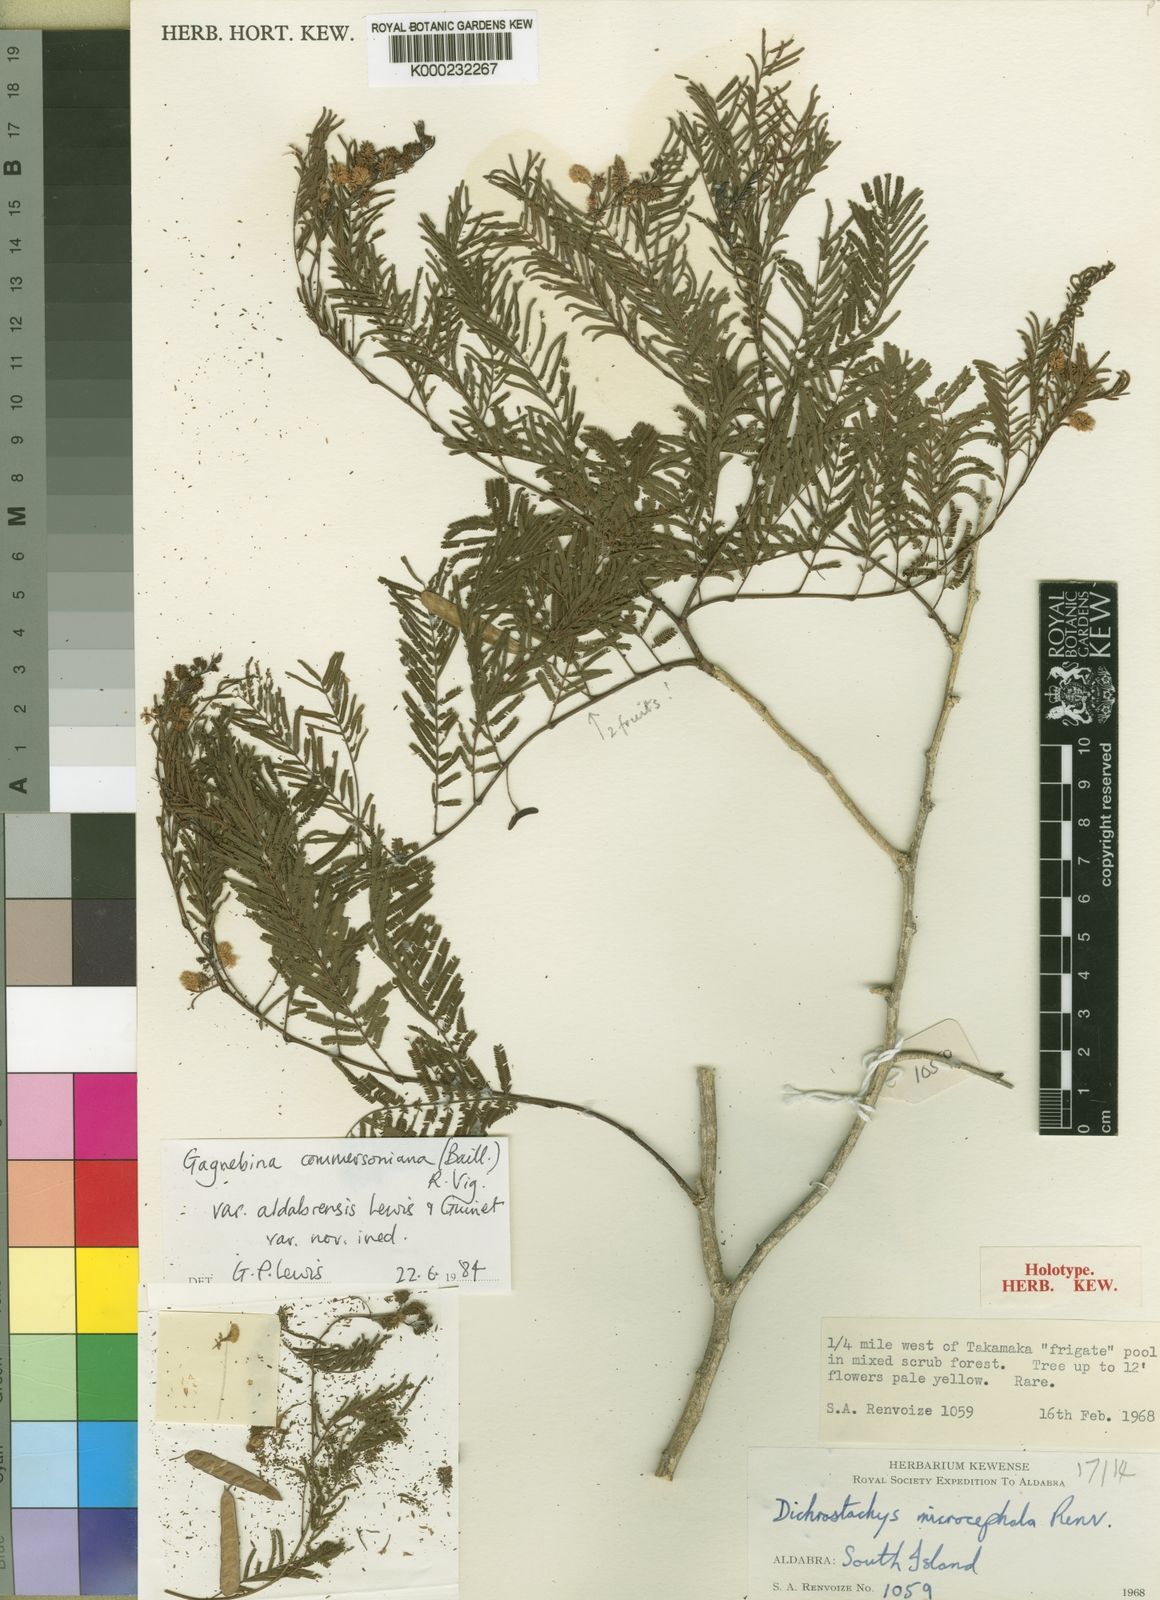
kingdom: Plantae
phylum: Tracheophyta
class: Magnoliopsida
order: Fabales
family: Fabaceae
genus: Gagnebina
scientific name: Gagnebina microcephala
